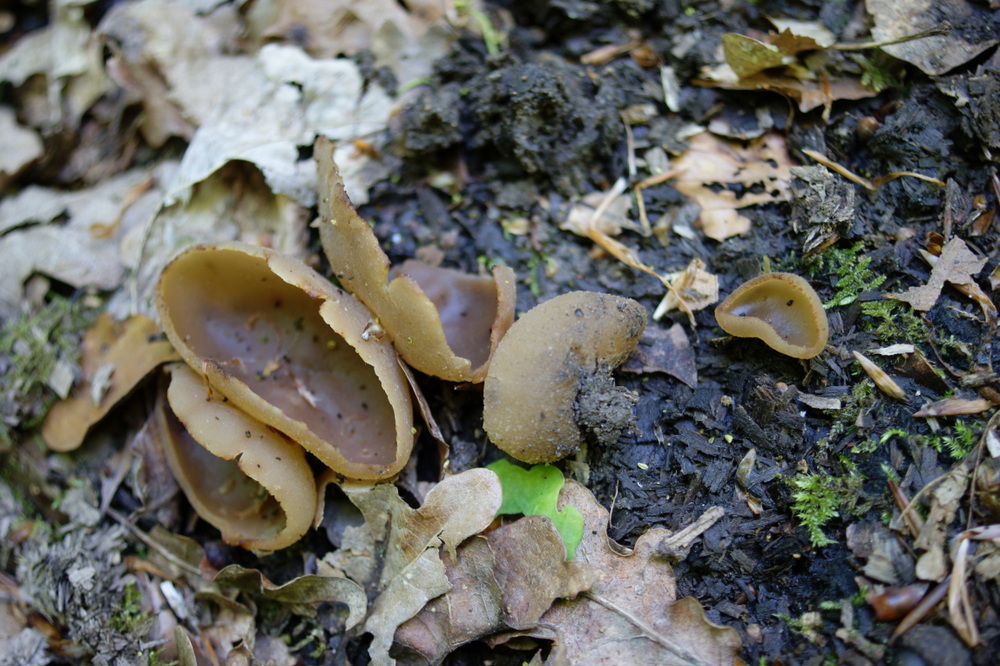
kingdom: Fungi
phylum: Ascomycota
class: Pezizomycetes
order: Pezizales
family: Pezizaceae
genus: Peziza
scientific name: Peziza varia
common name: Ved-bægersvamp
